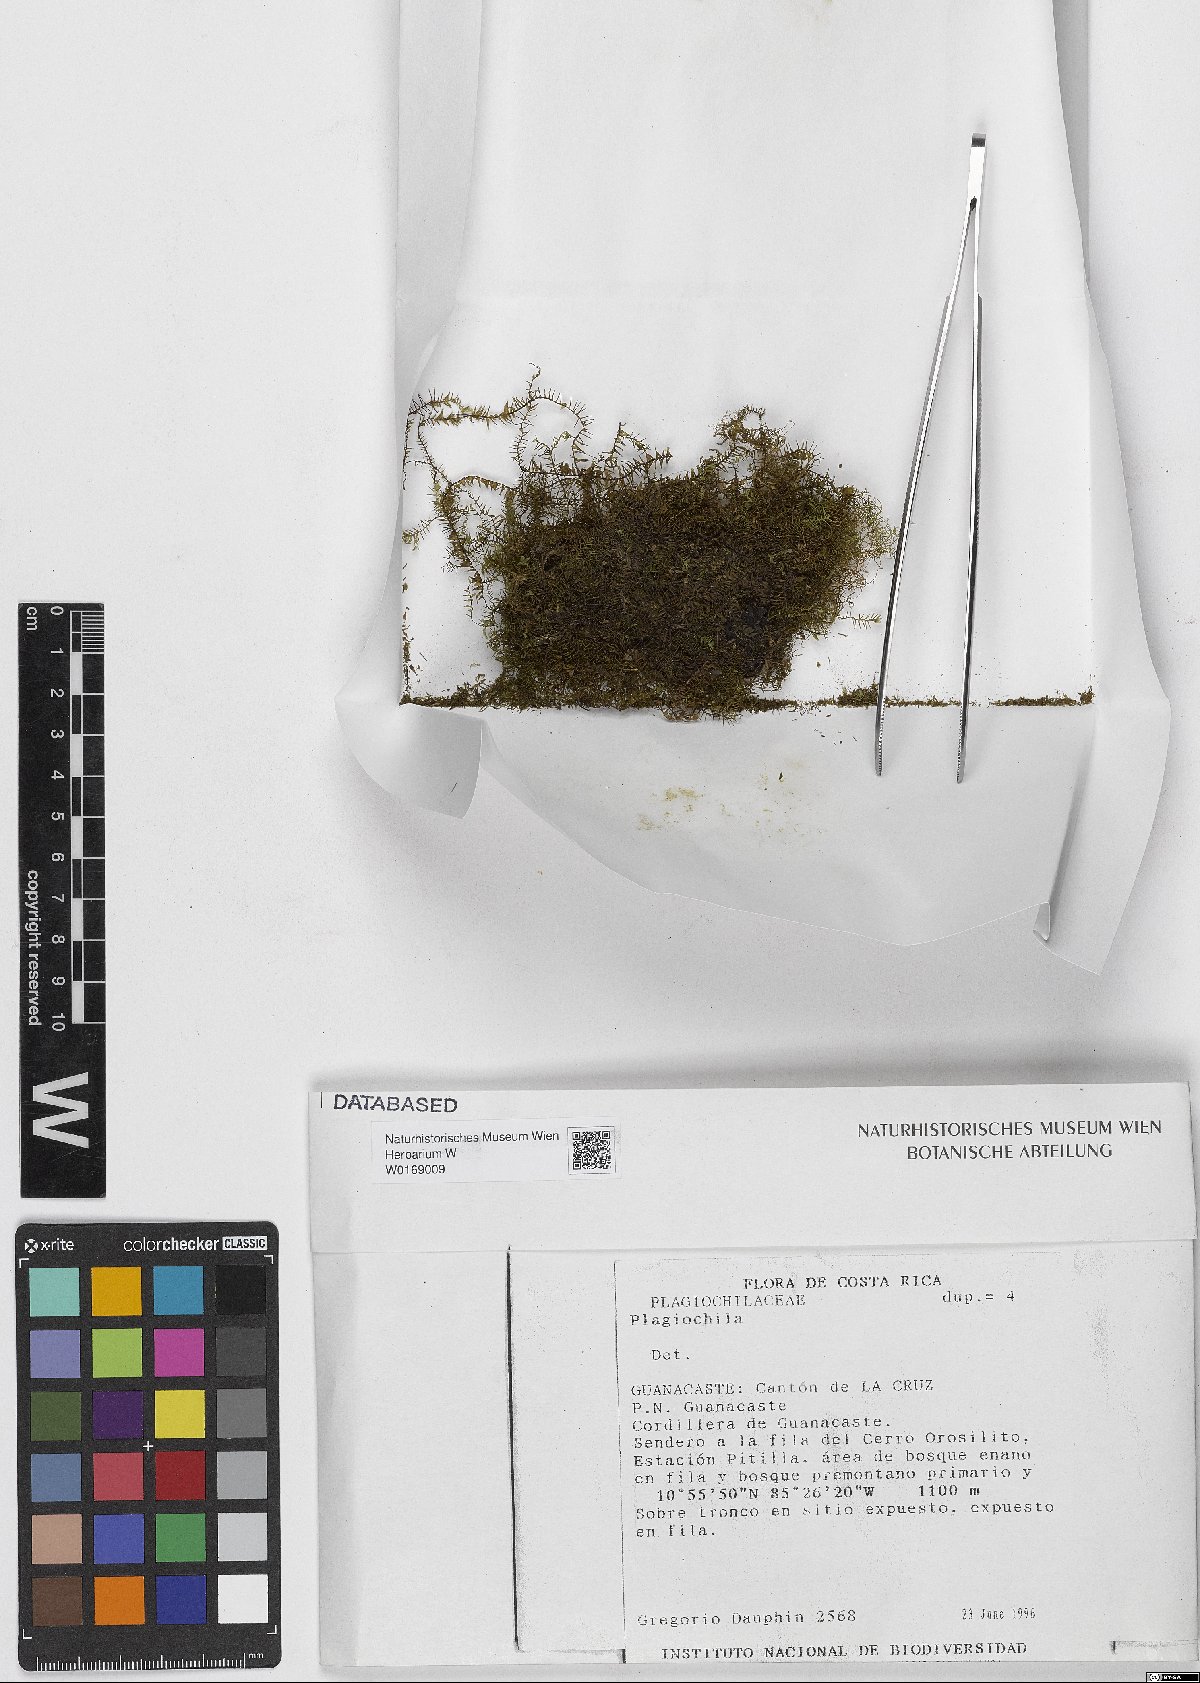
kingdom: Plantae
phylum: Marchantiophyta
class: Jungermanniopsida
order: Jungermanniales
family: Plagiochilaceae
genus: Plagiochila
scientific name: Plagiochila
